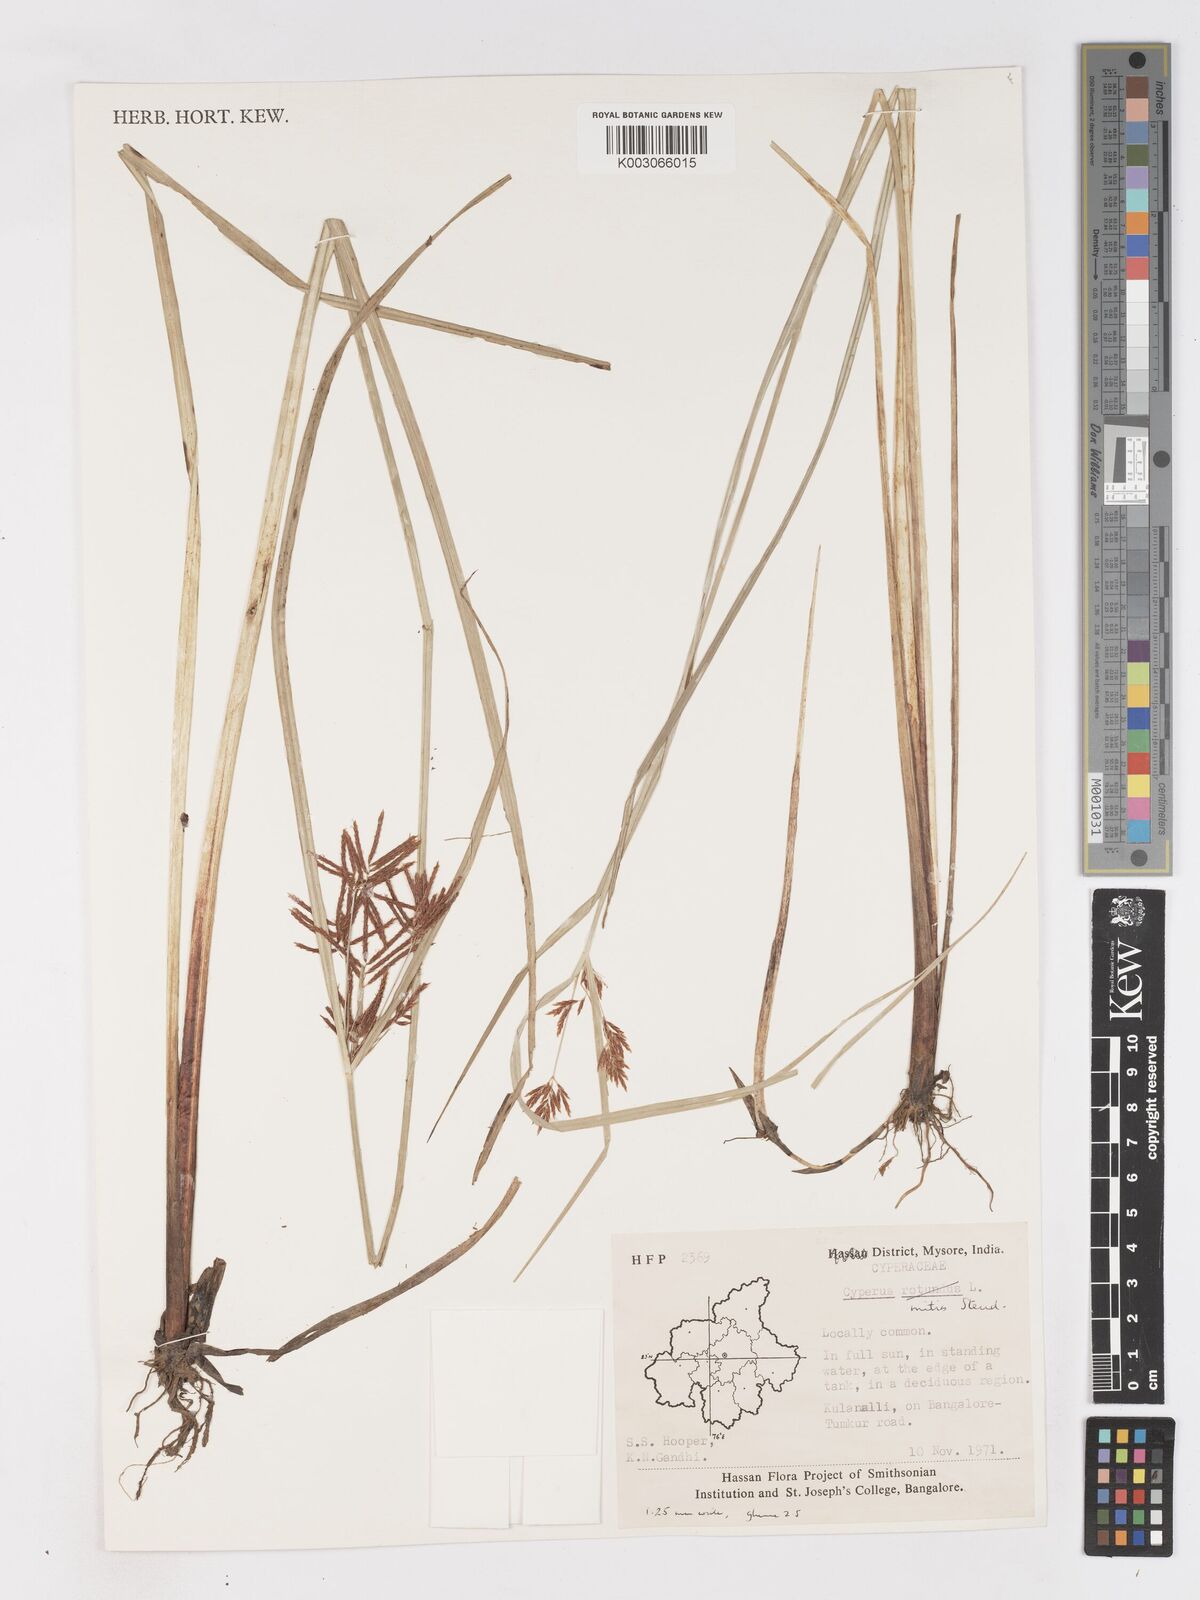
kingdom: Plantae
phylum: Tracheophyta
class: Liliopsida
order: Poales
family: Cyperaceae
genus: Cyperus
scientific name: Cyperus mitis
